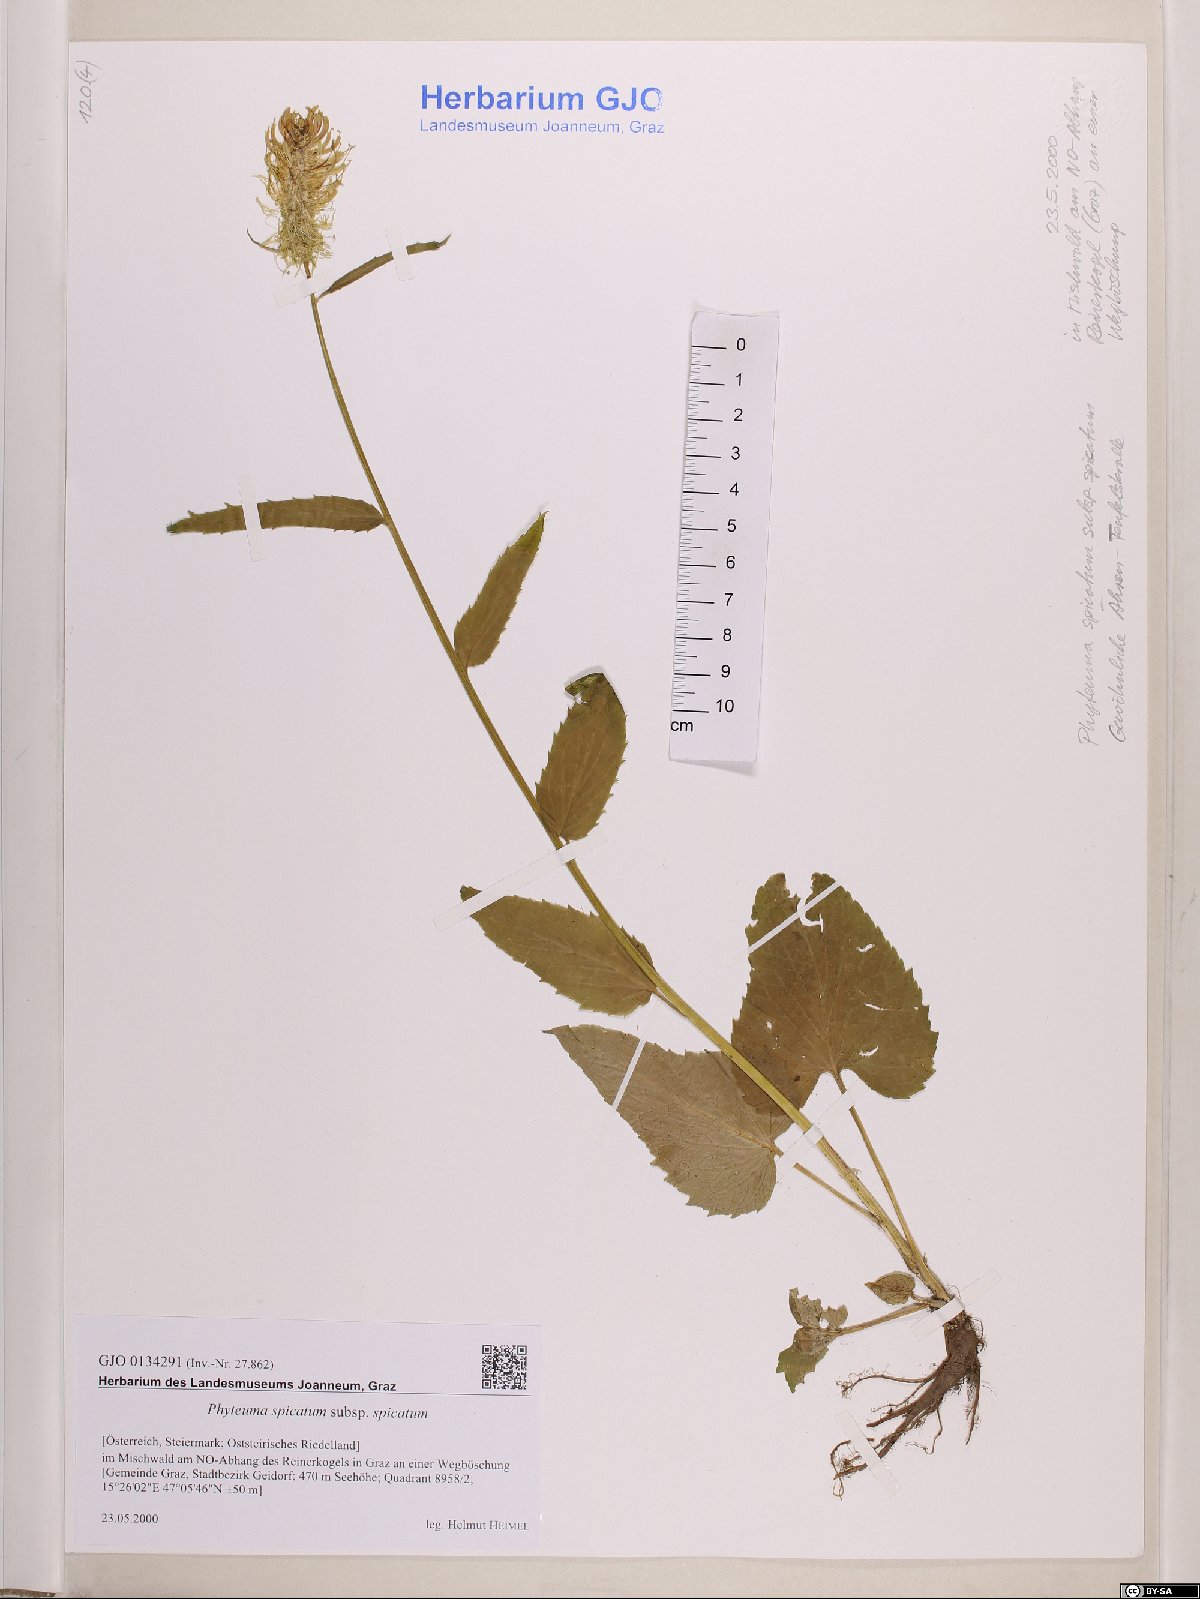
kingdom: Plantae
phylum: Tracheophyta
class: Magnoliopsida
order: Asterales
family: Campanulaceae
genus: Phyteuma
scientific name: Phyteuma spicatum
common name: Spiked rampion
